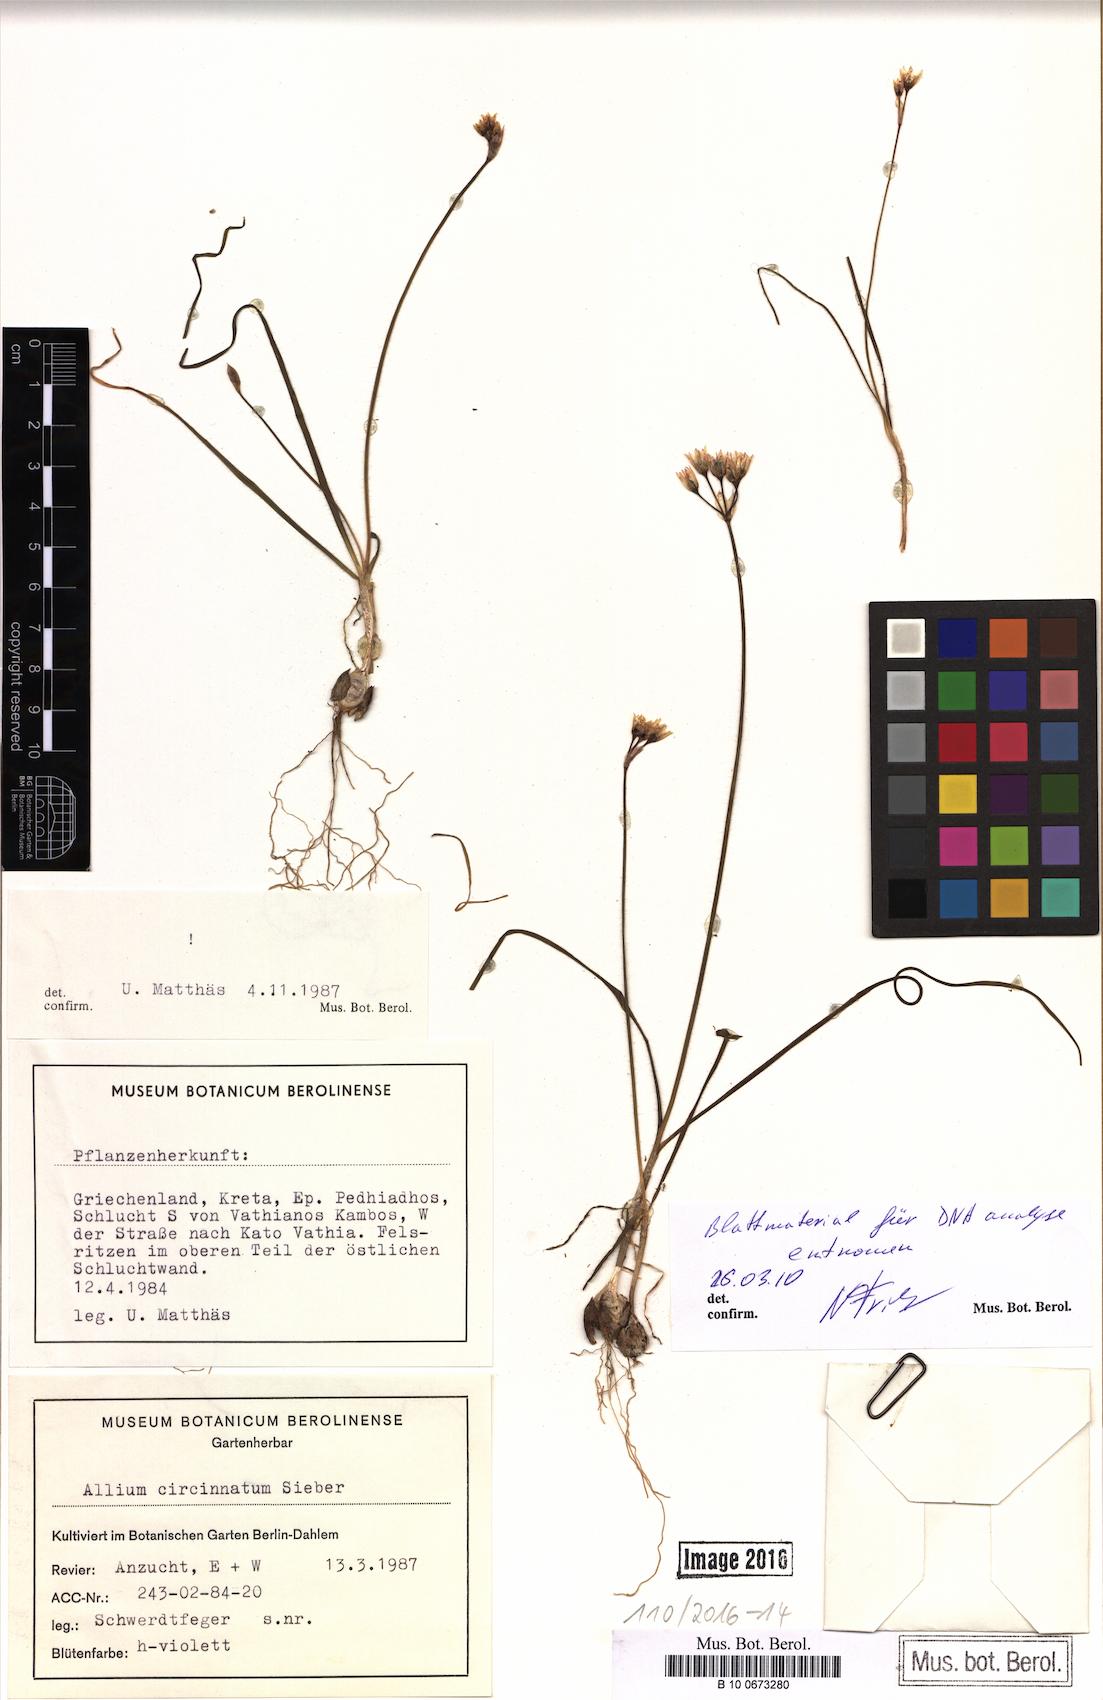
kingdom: Plantae
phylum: Tracheophyta
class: Liliopsida
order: Asparagales
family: Amaryllidaceae
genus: Allium
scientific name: Allium circinnatum
